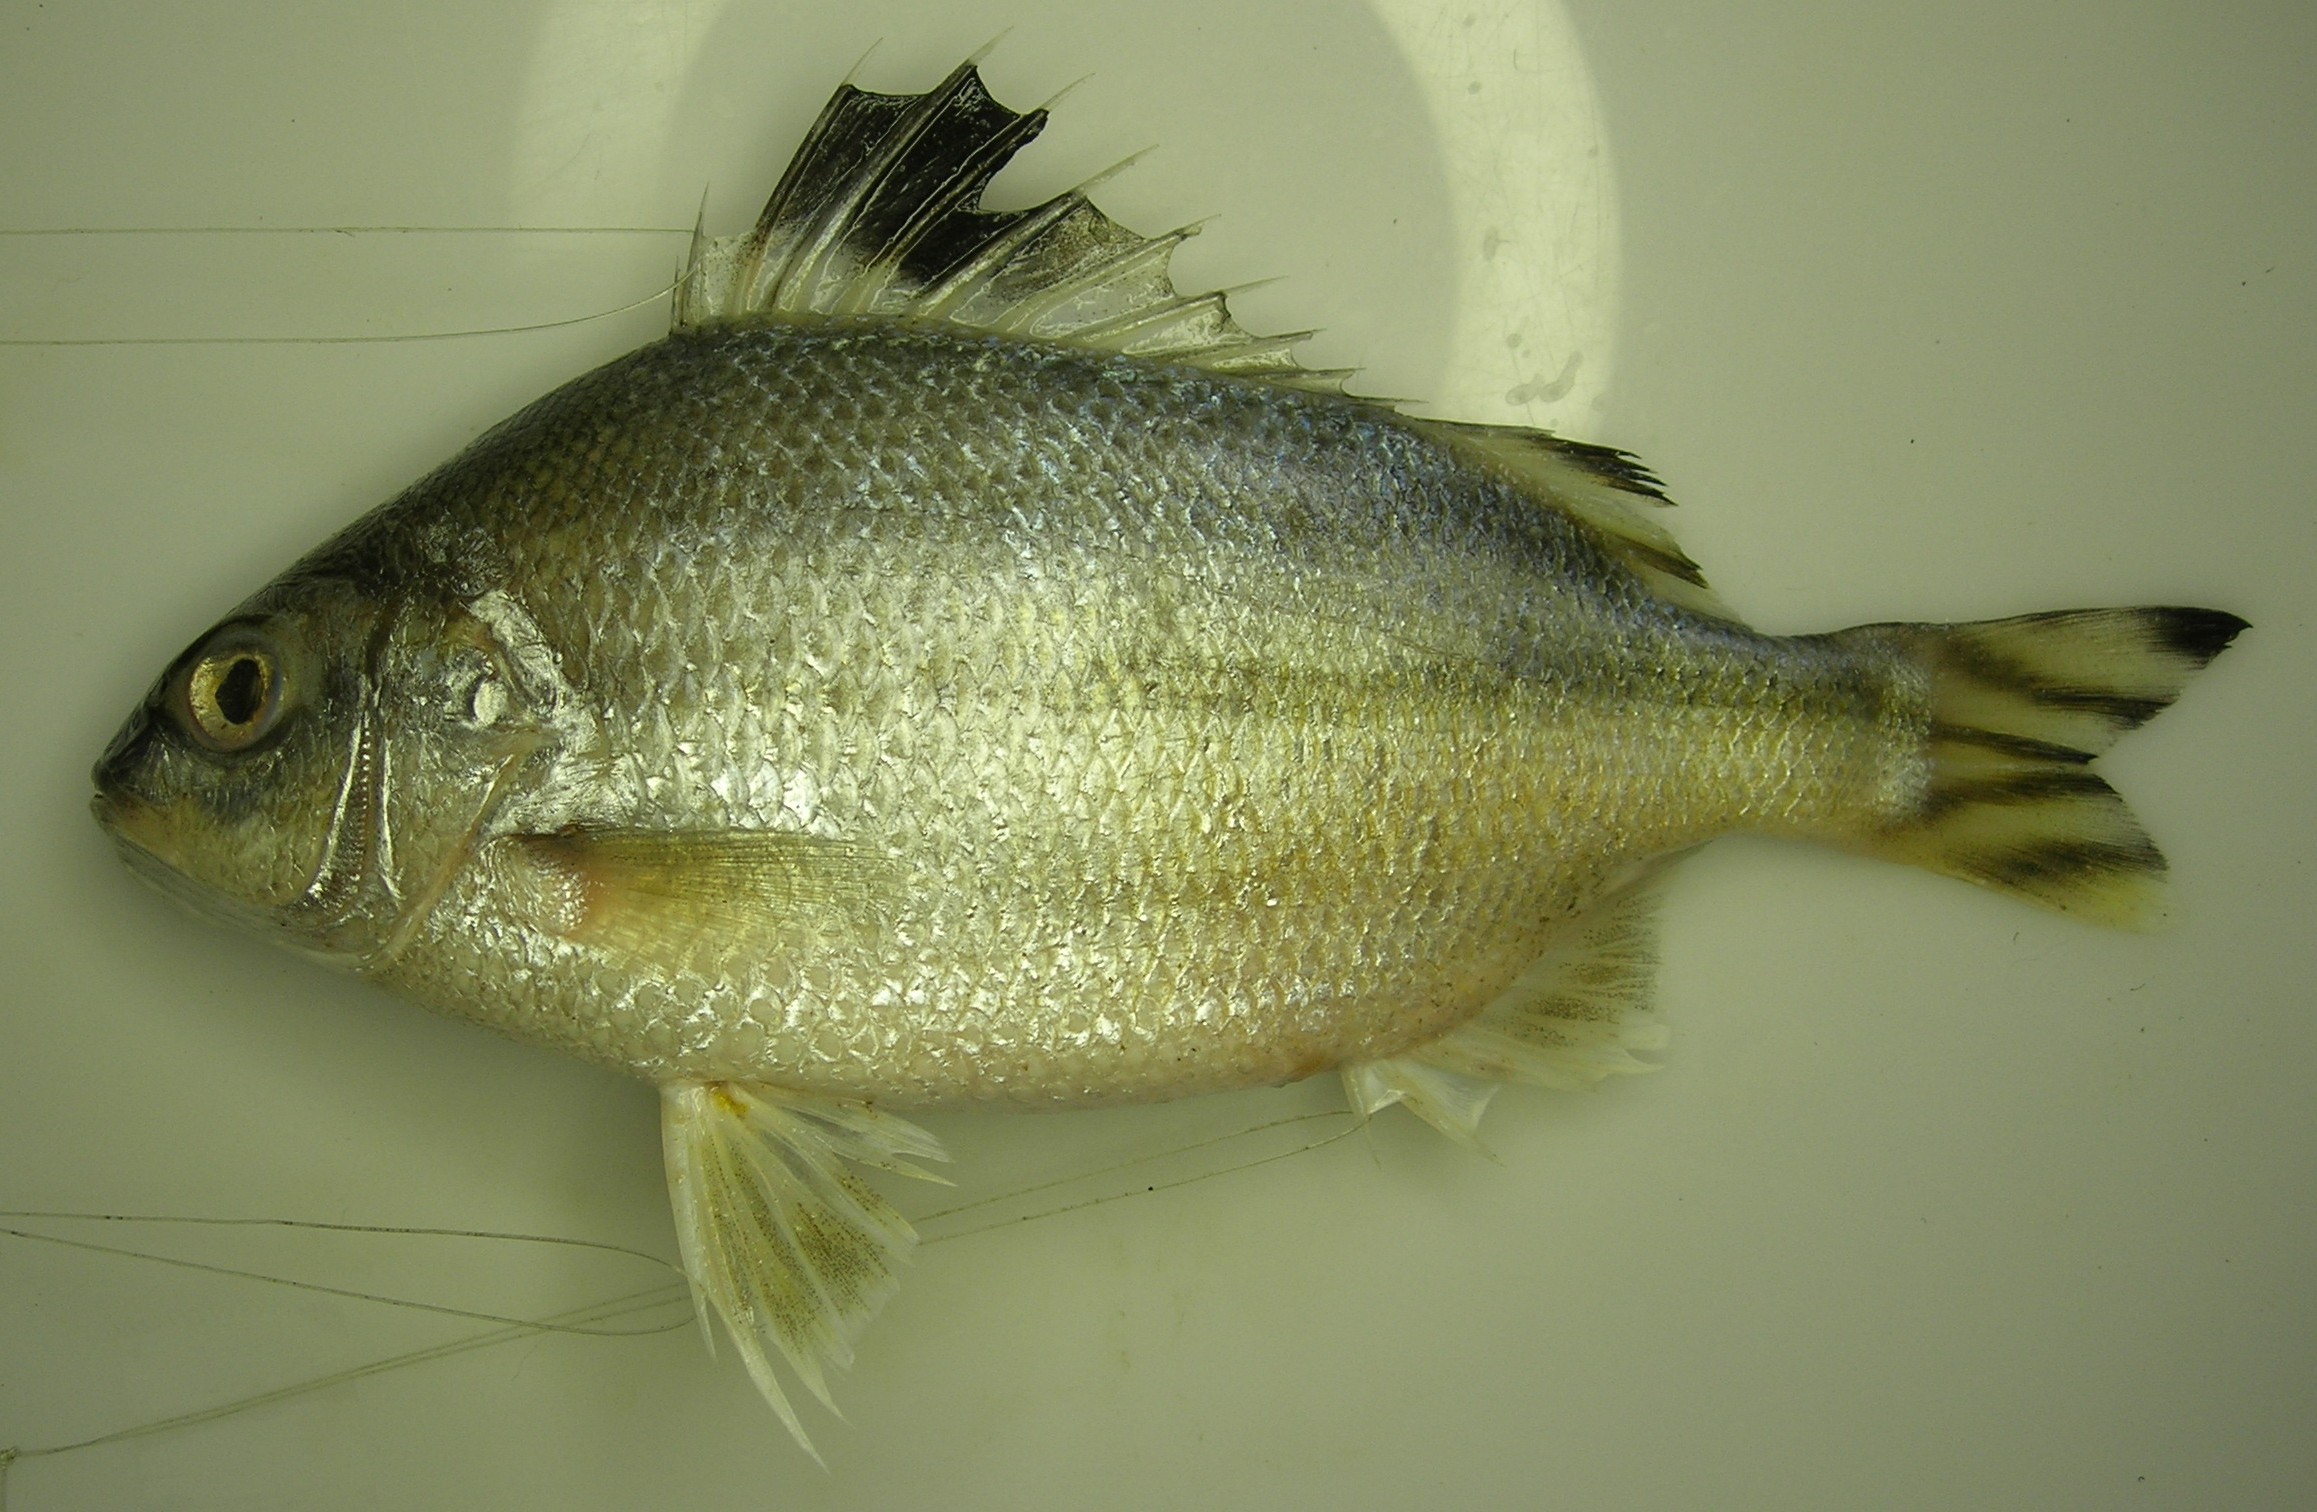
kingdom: Animalia
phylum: Chordata
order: Perciformes
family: Terapontidae
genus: Terapon
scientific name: Terapon theraps
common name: Largescaled therapon
